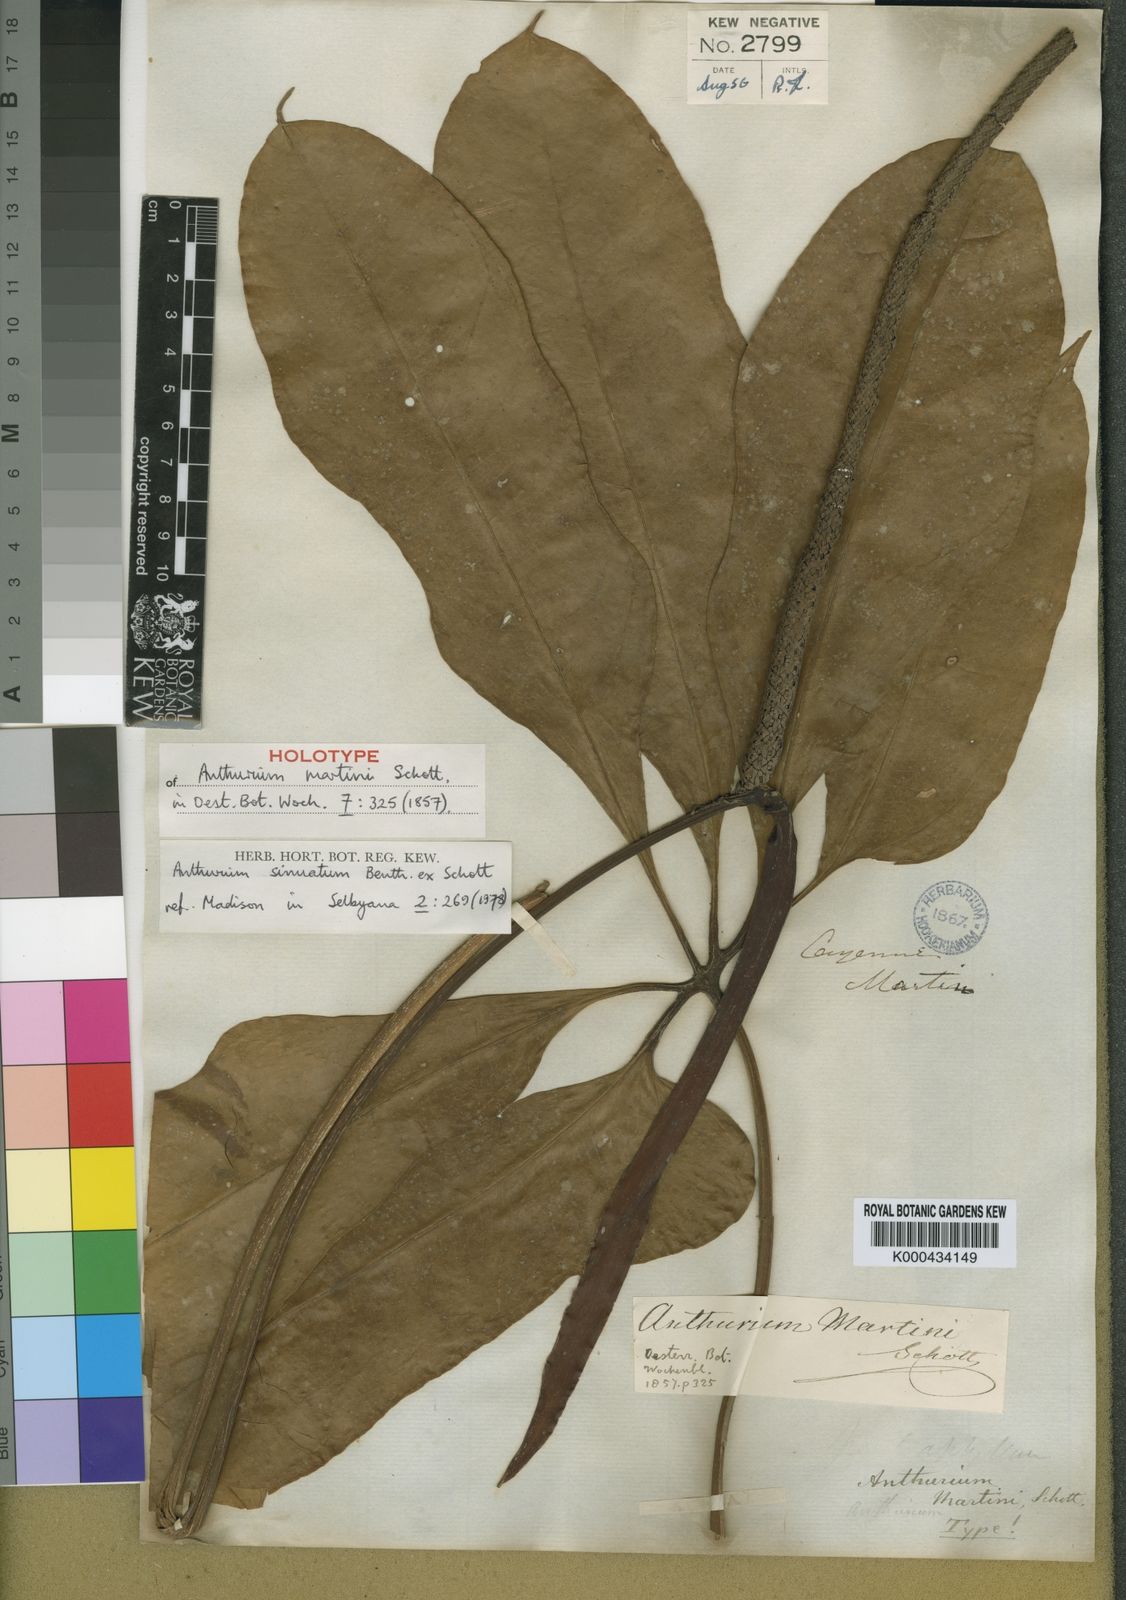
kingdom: Plantae
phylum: Tracheophyta
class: Liliopsida
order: Alismatales
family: Araceae
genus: Anthurium
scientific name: Anthurium sinuatum
